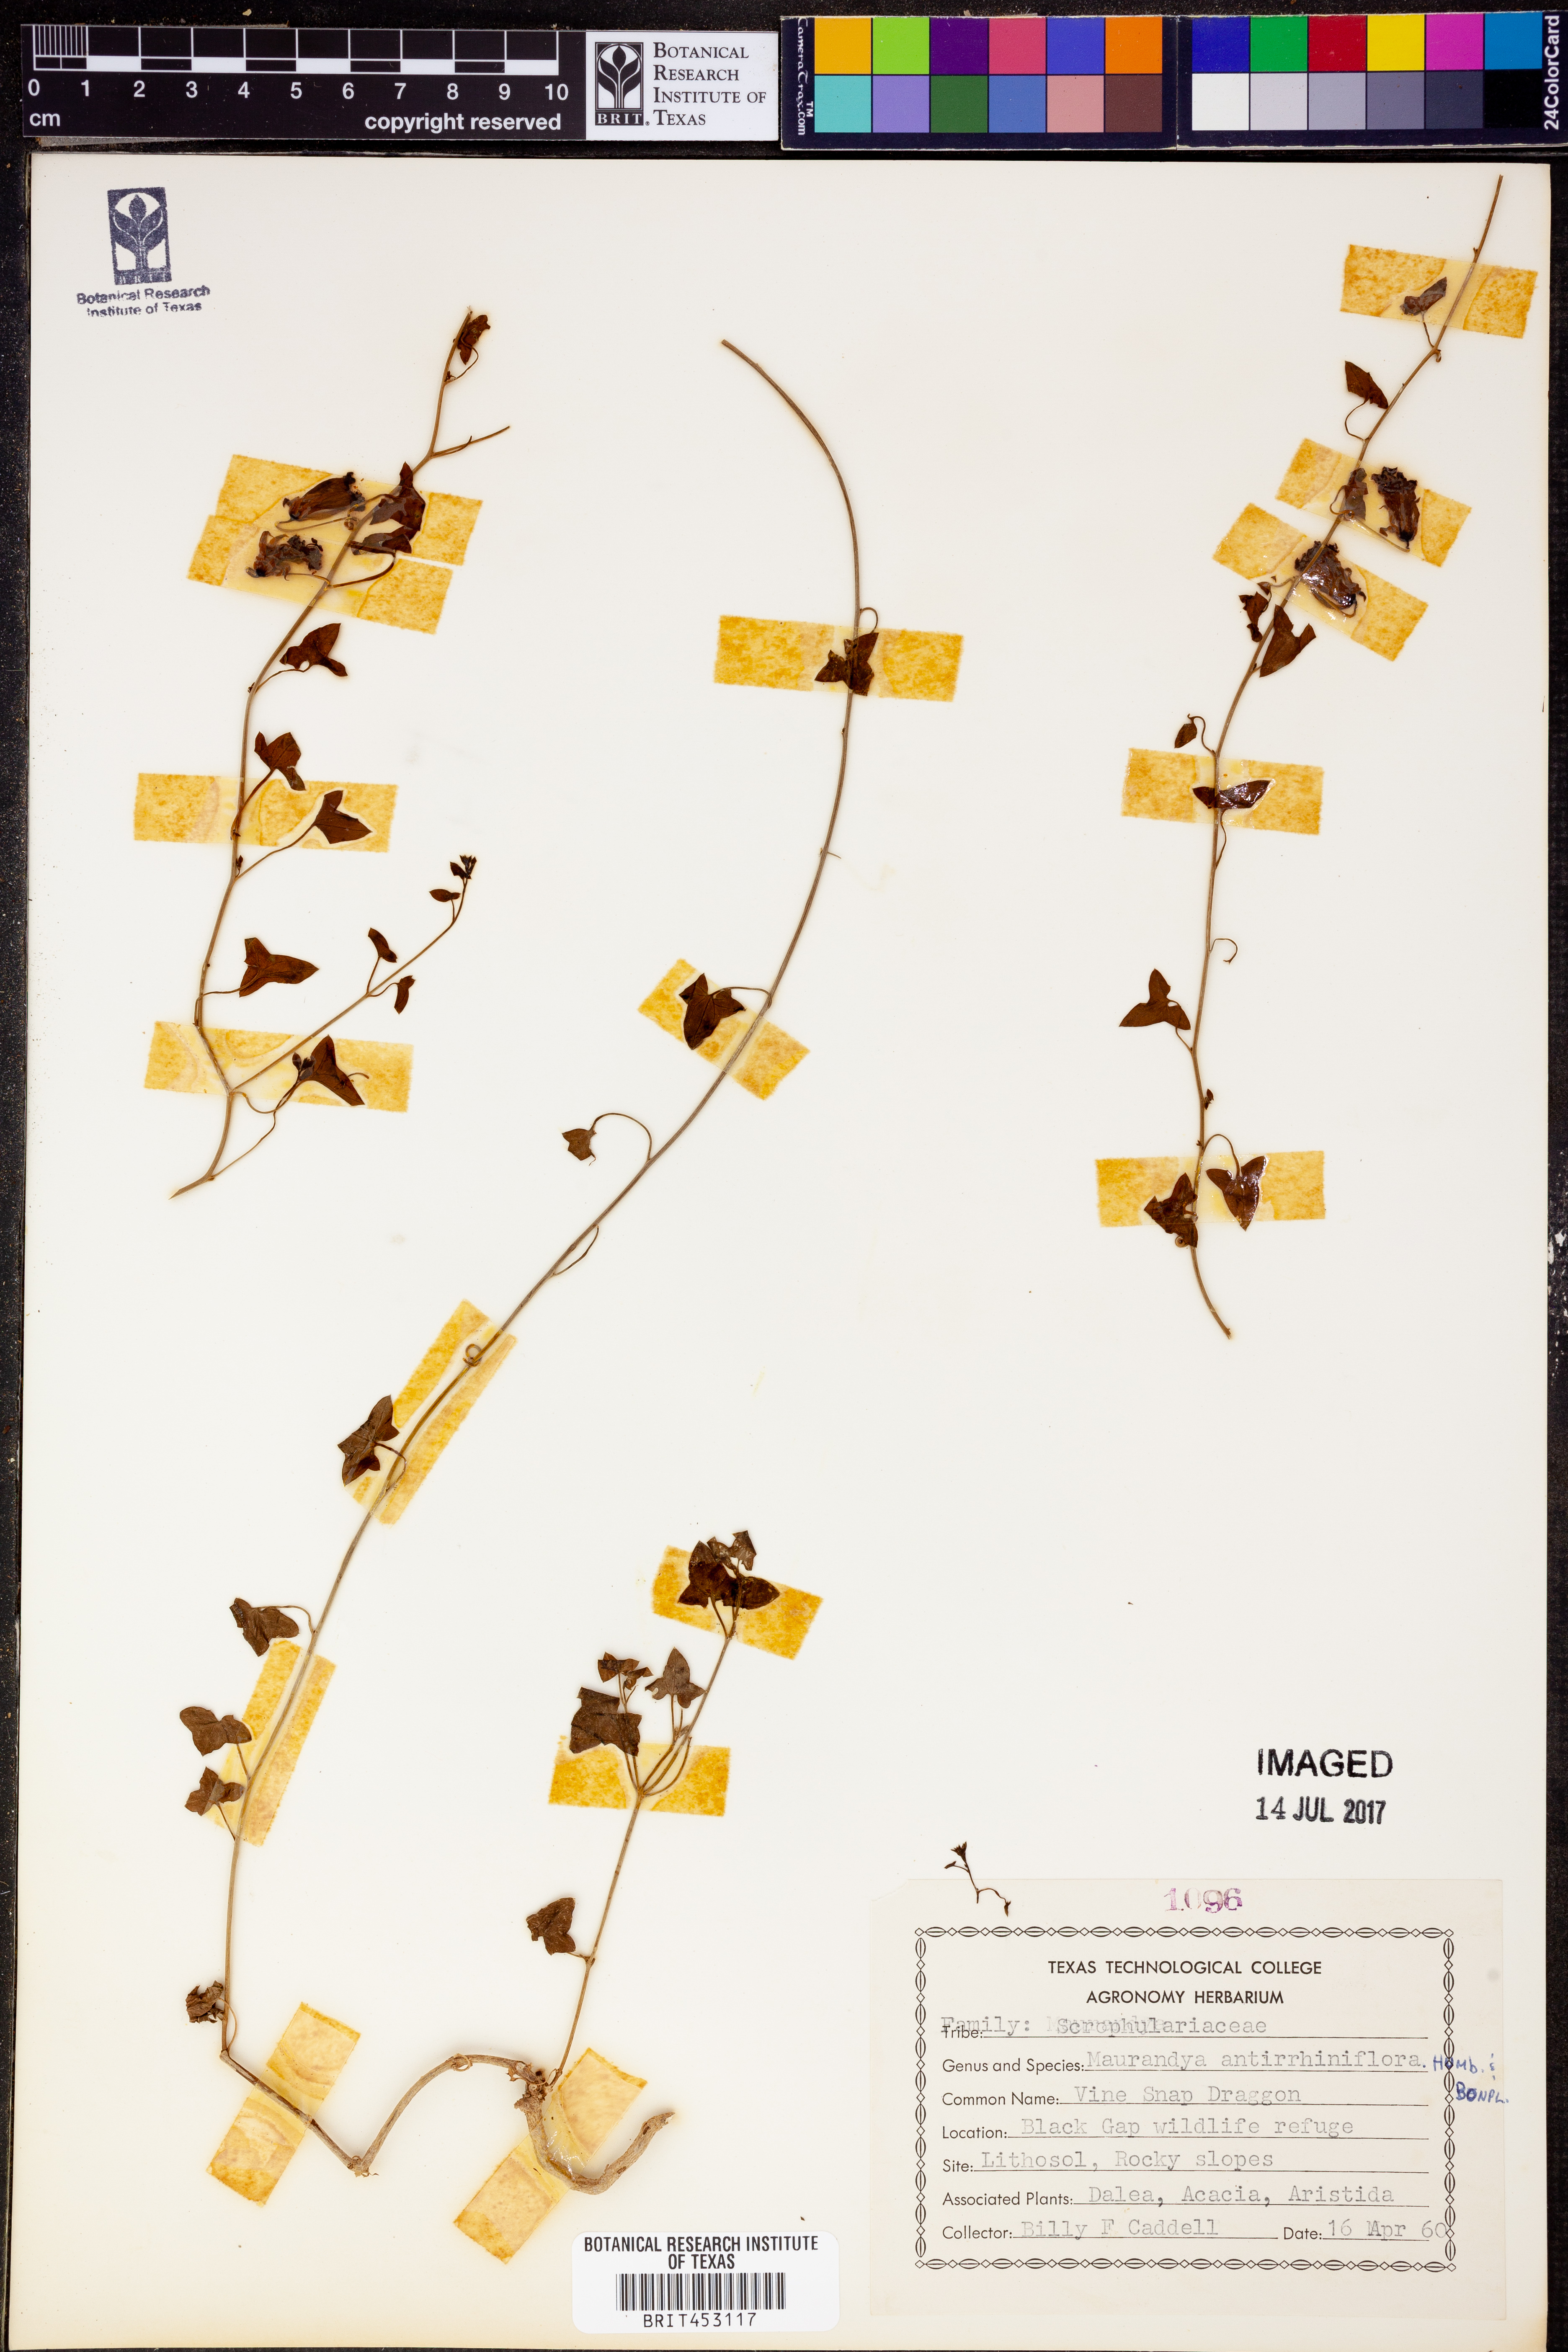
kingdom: Plantae
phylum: Tracheophyta
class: Magnoliopsida
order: Lamiales
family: Plantaginaceae
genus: Maurandella
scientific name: Maurandella antirrhiniflora
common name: Violet twining-snapdragon
